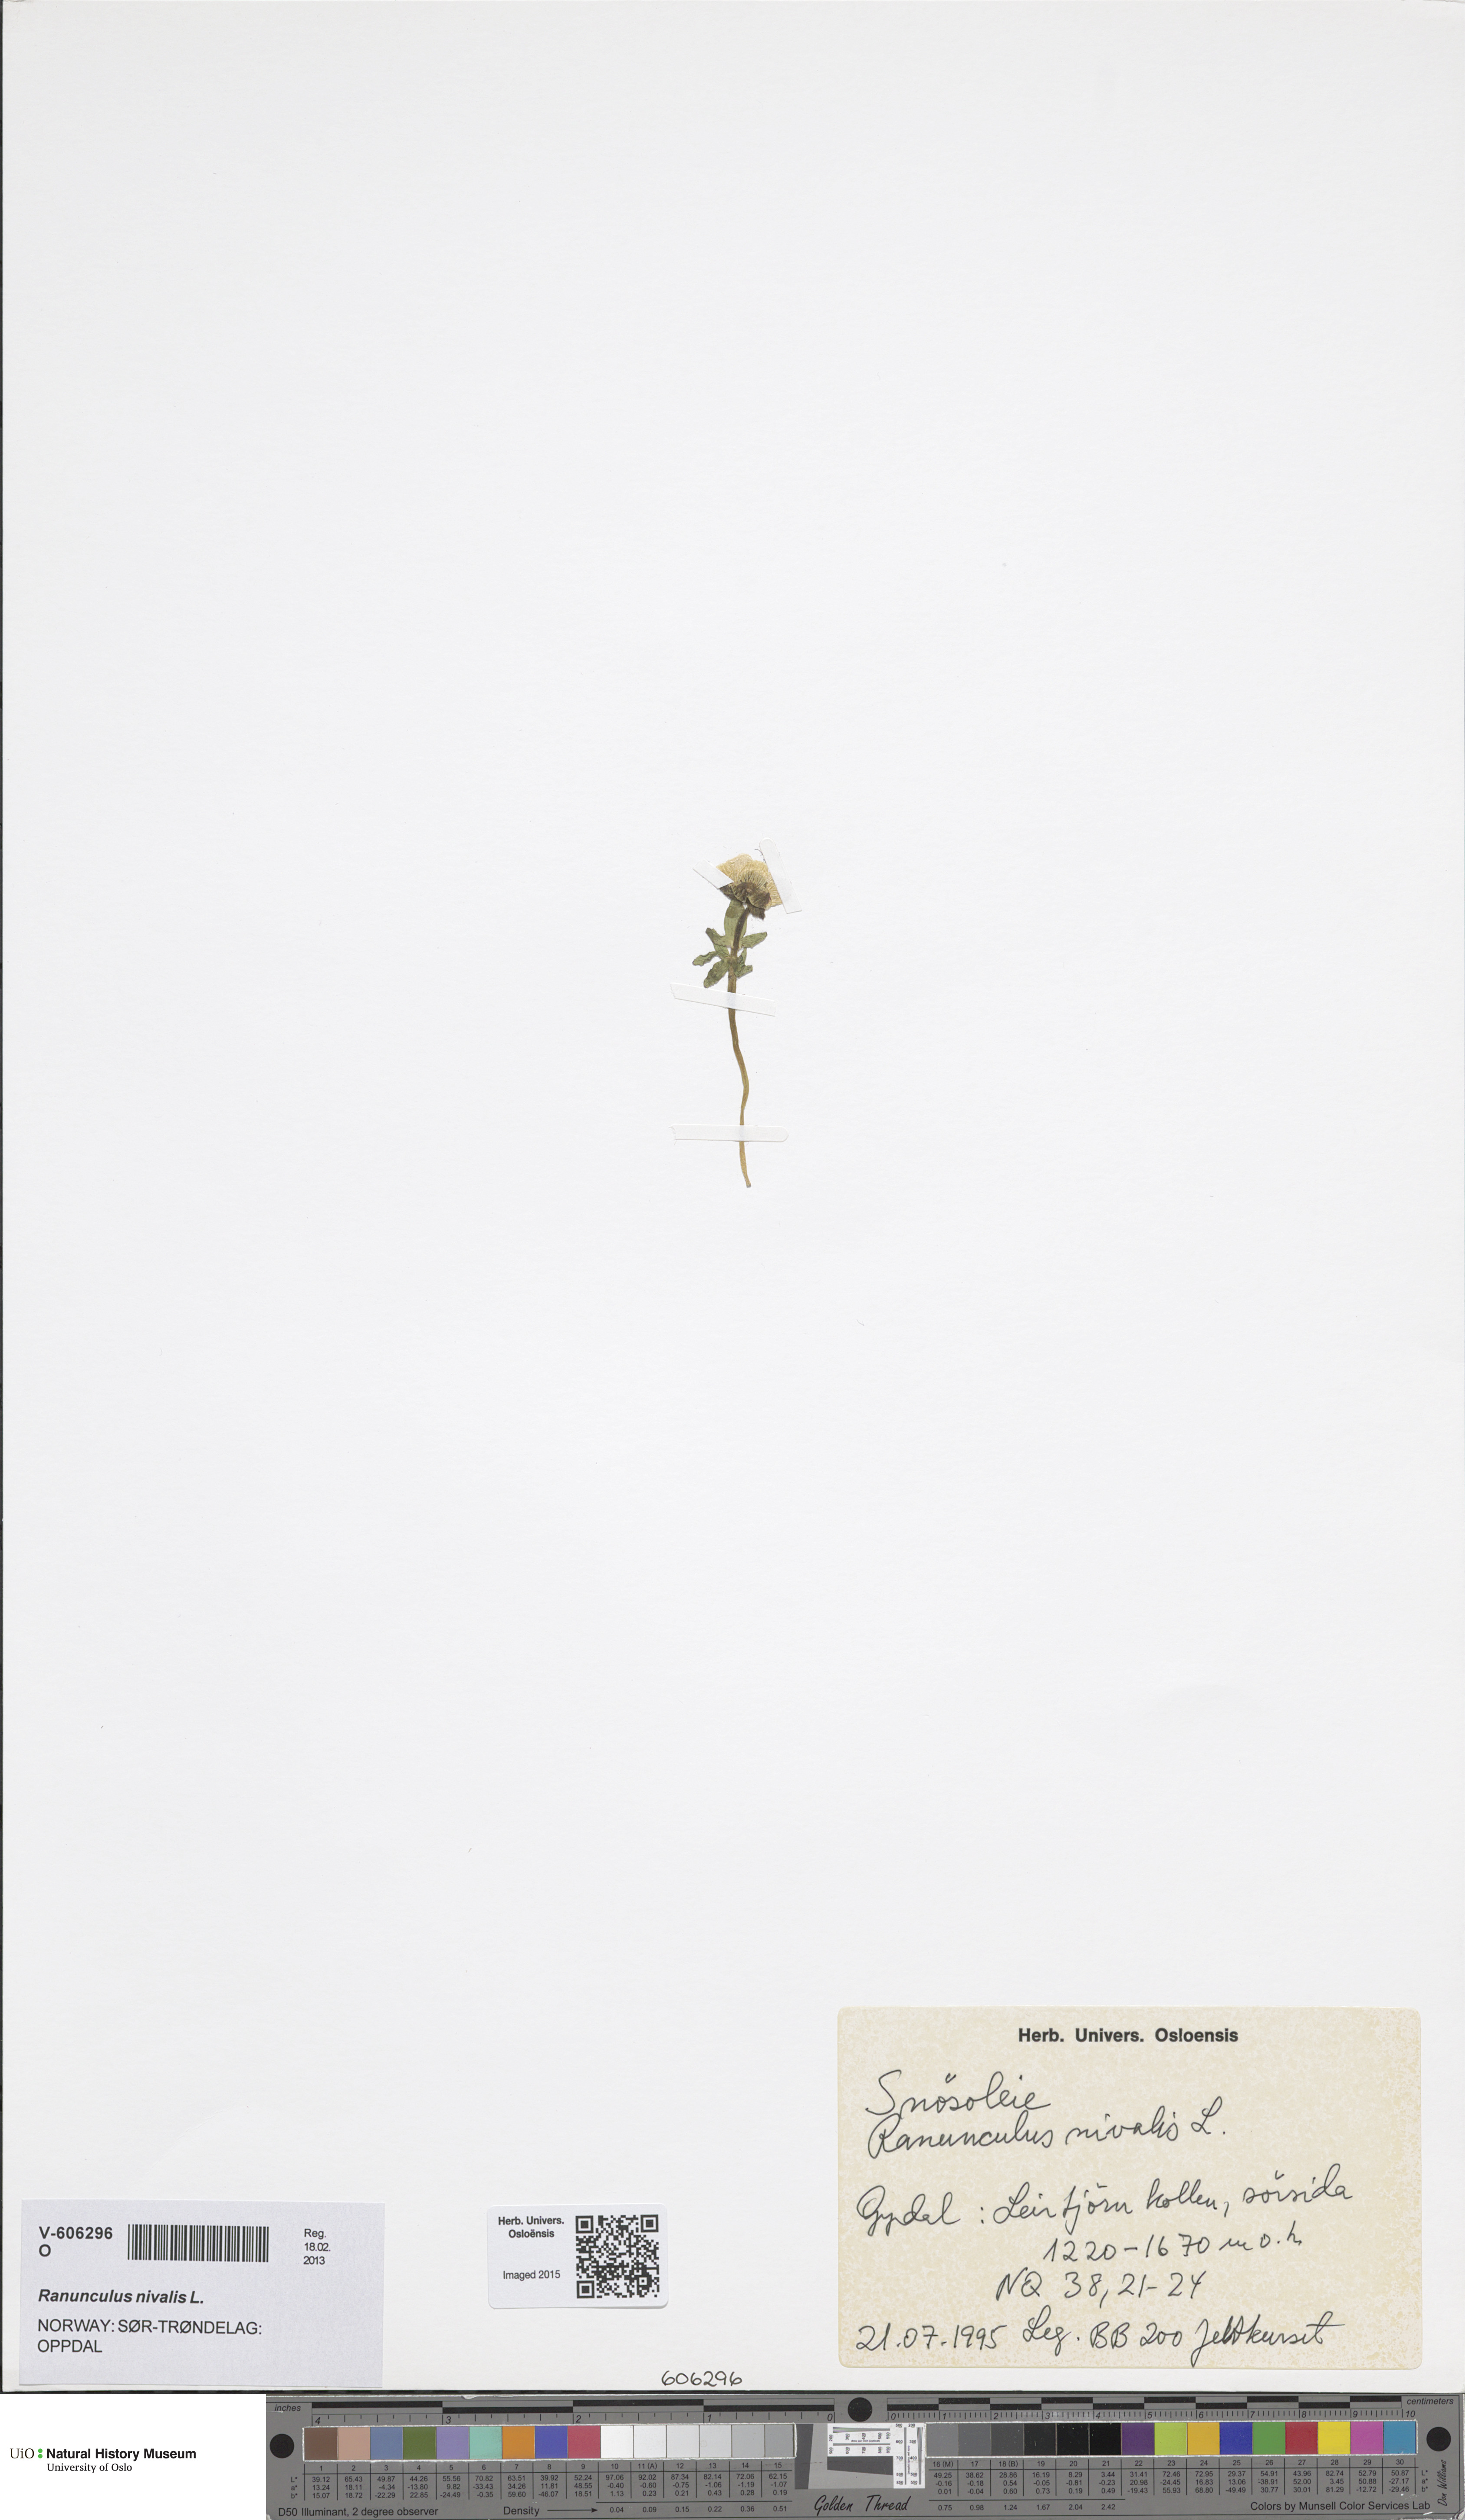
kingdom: Plantae
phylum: Tracheophyta
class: Magnoliopsida
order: Ranunculales
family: Ranunculaceae
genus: Ranunculus
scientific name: Ranunculus nivalis
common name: Snow buttercup
